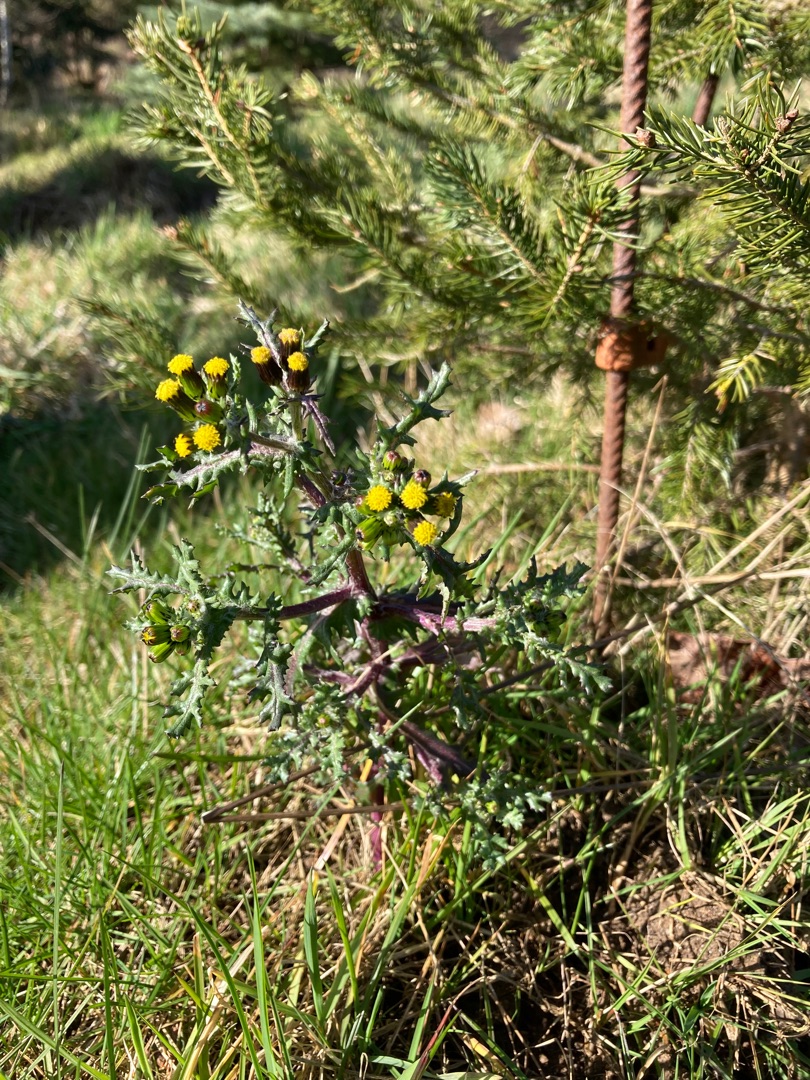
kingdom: Plantae
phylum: Tracheophyta
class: Magnoliopsida
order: Asterales
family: Asteraceae
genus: Senecio
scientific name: Senecio vulgaris
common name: Almindelig brandbæger
